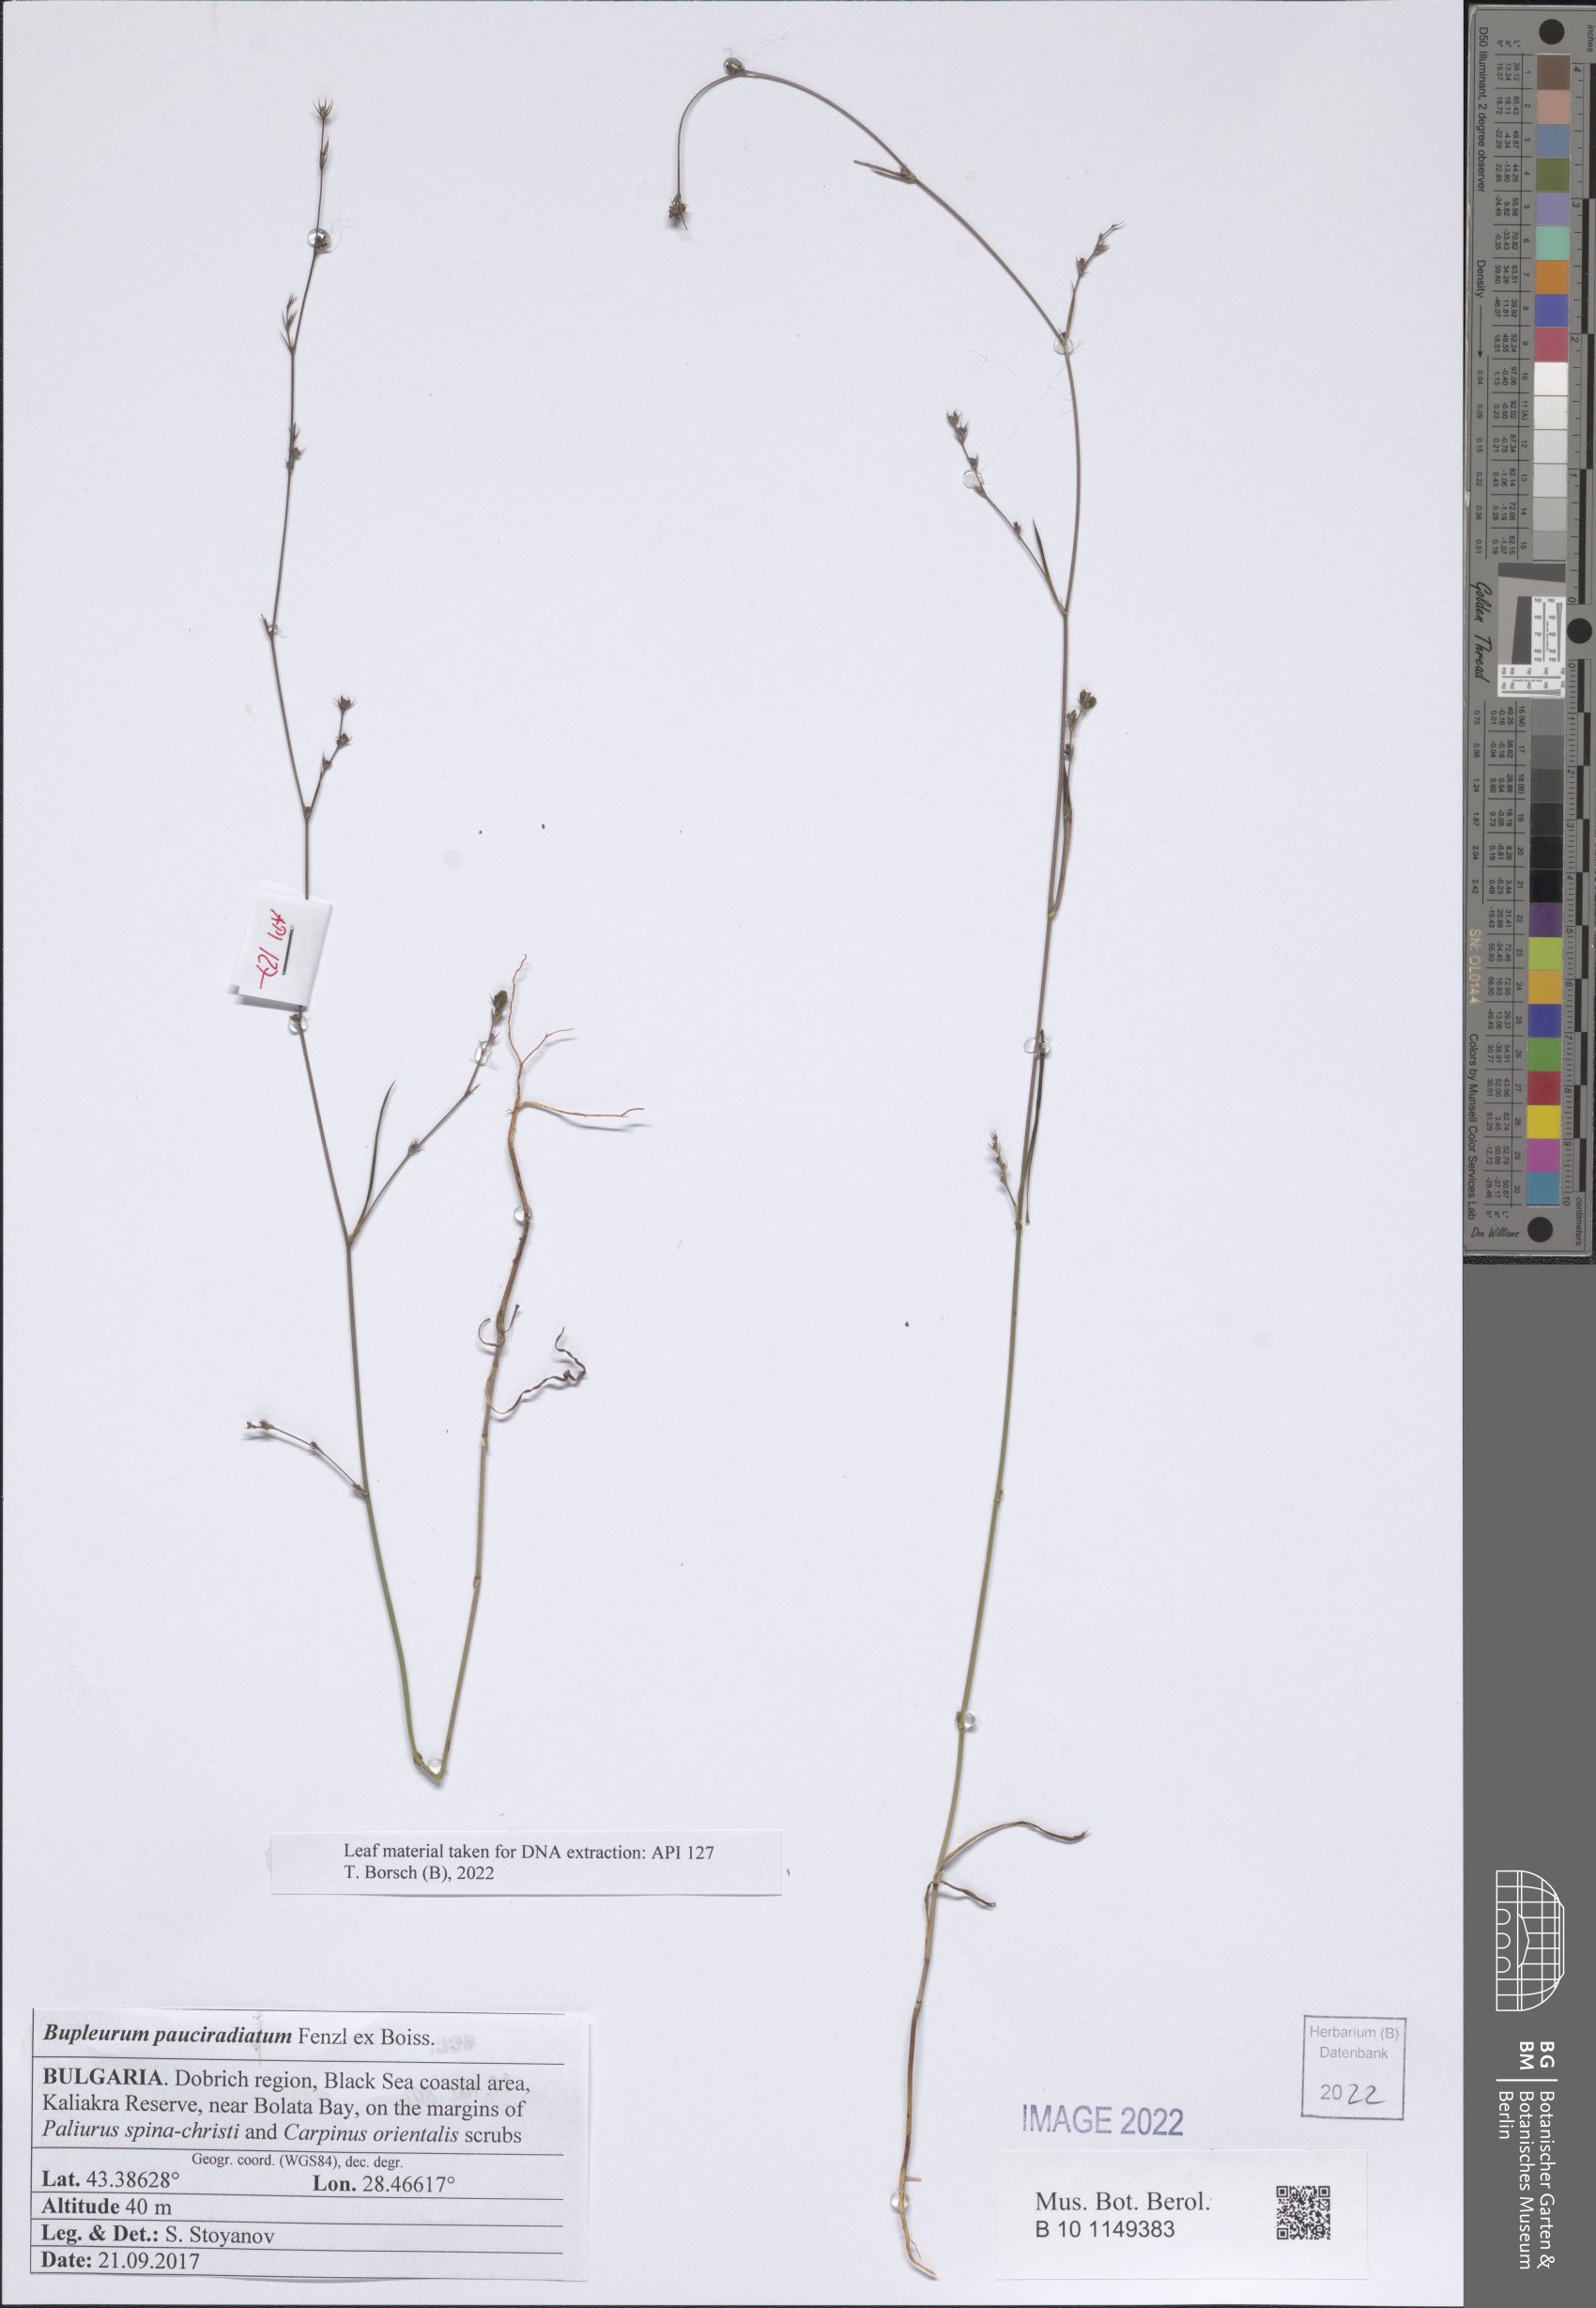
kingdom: Plantae
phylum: Tracheophyta
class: Magnoliopsida
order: Apiales
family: Apiaceae
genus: Bupleurum
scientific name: Bupleurum pauciradiatum
